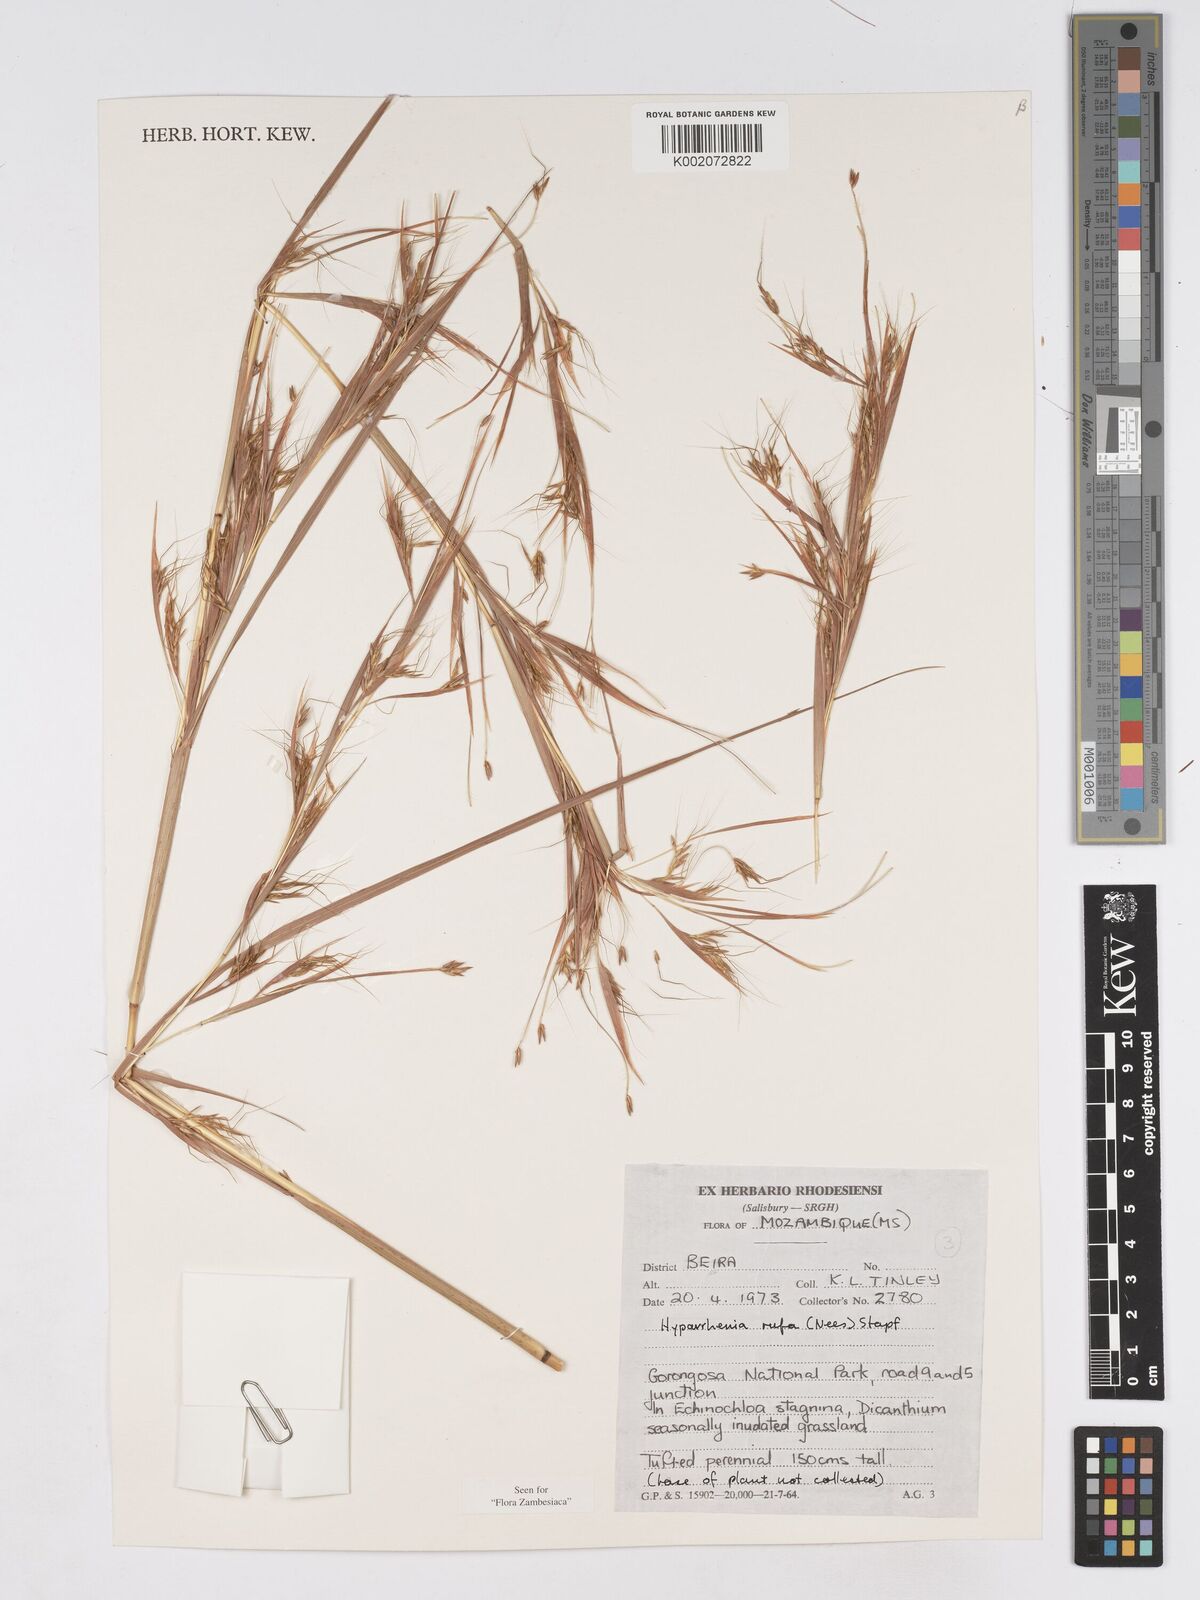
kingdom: Plantae
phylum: Tracheophyta
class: Liliopsida
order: Poales
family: Poaceae
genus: Hyparrhenia
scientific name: Hyparrhenia rufa
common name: Jaraguagrass
